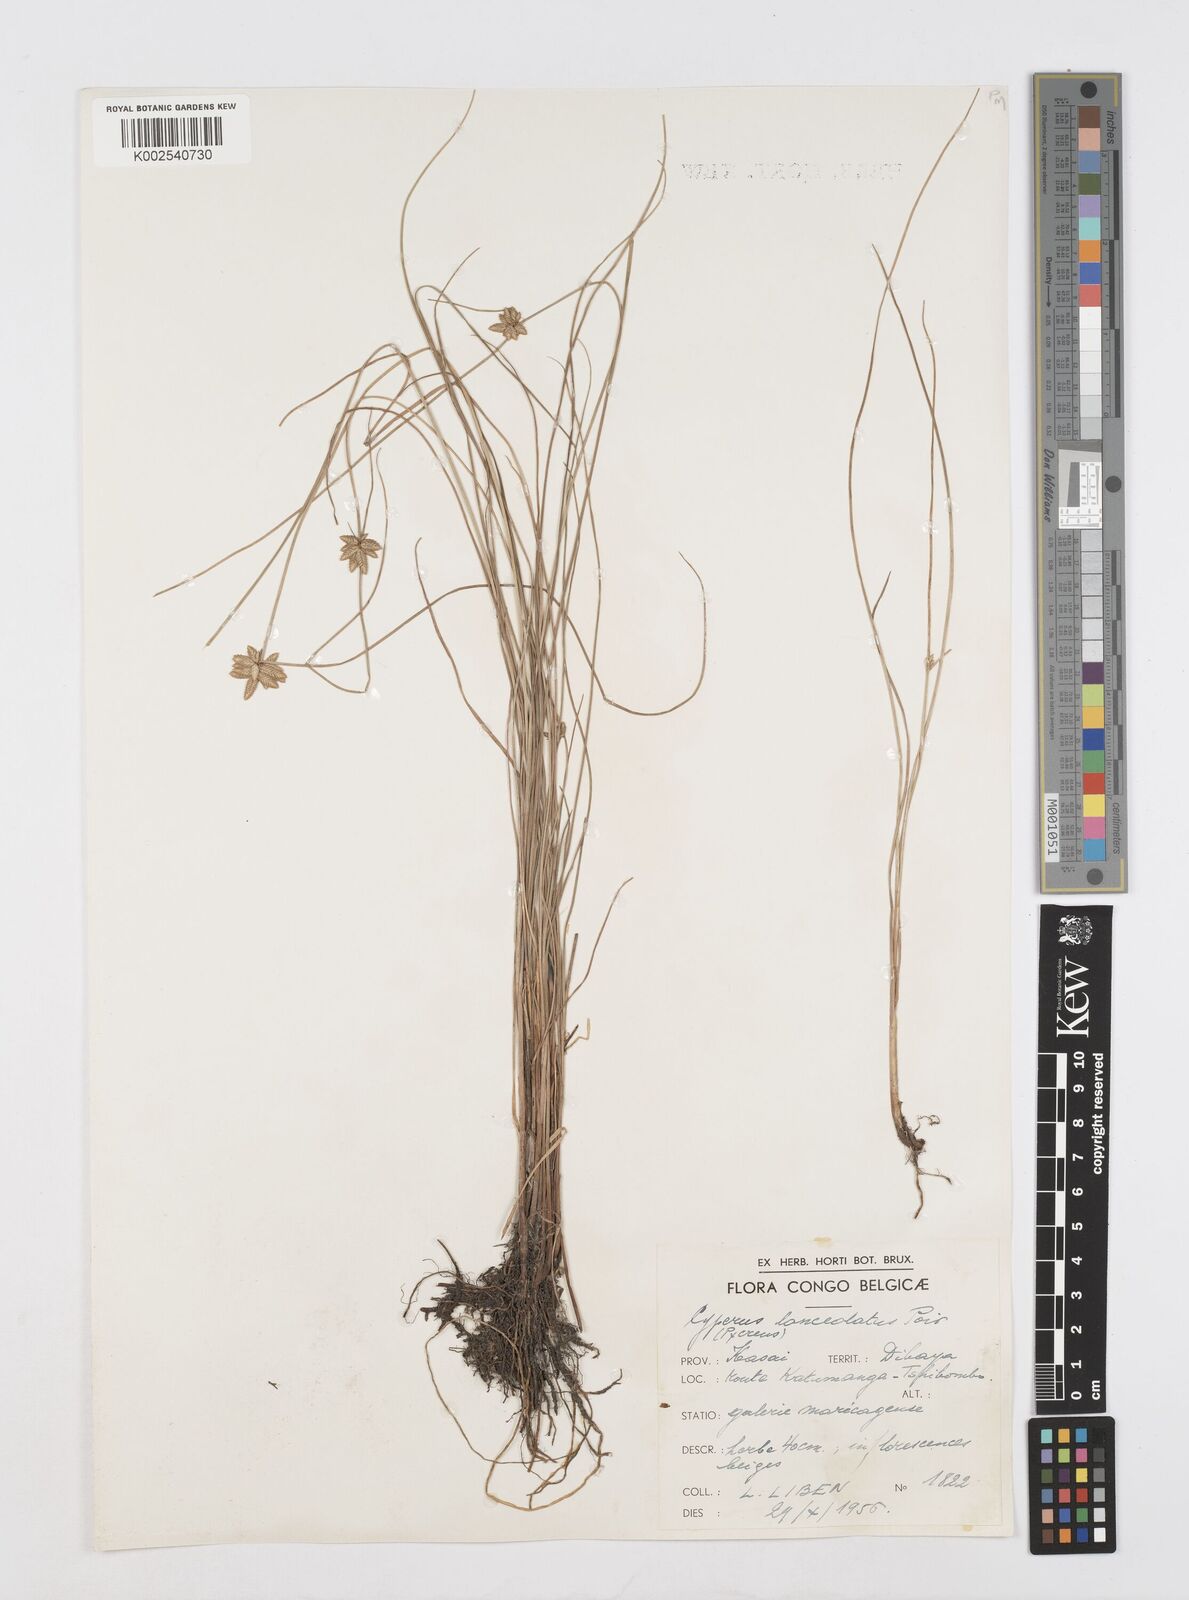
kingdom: Plantae
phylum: Tracheophyta
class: Liliopsida
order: Poales
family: Cyperaceae
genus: Cyperus
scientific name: Cyperus
